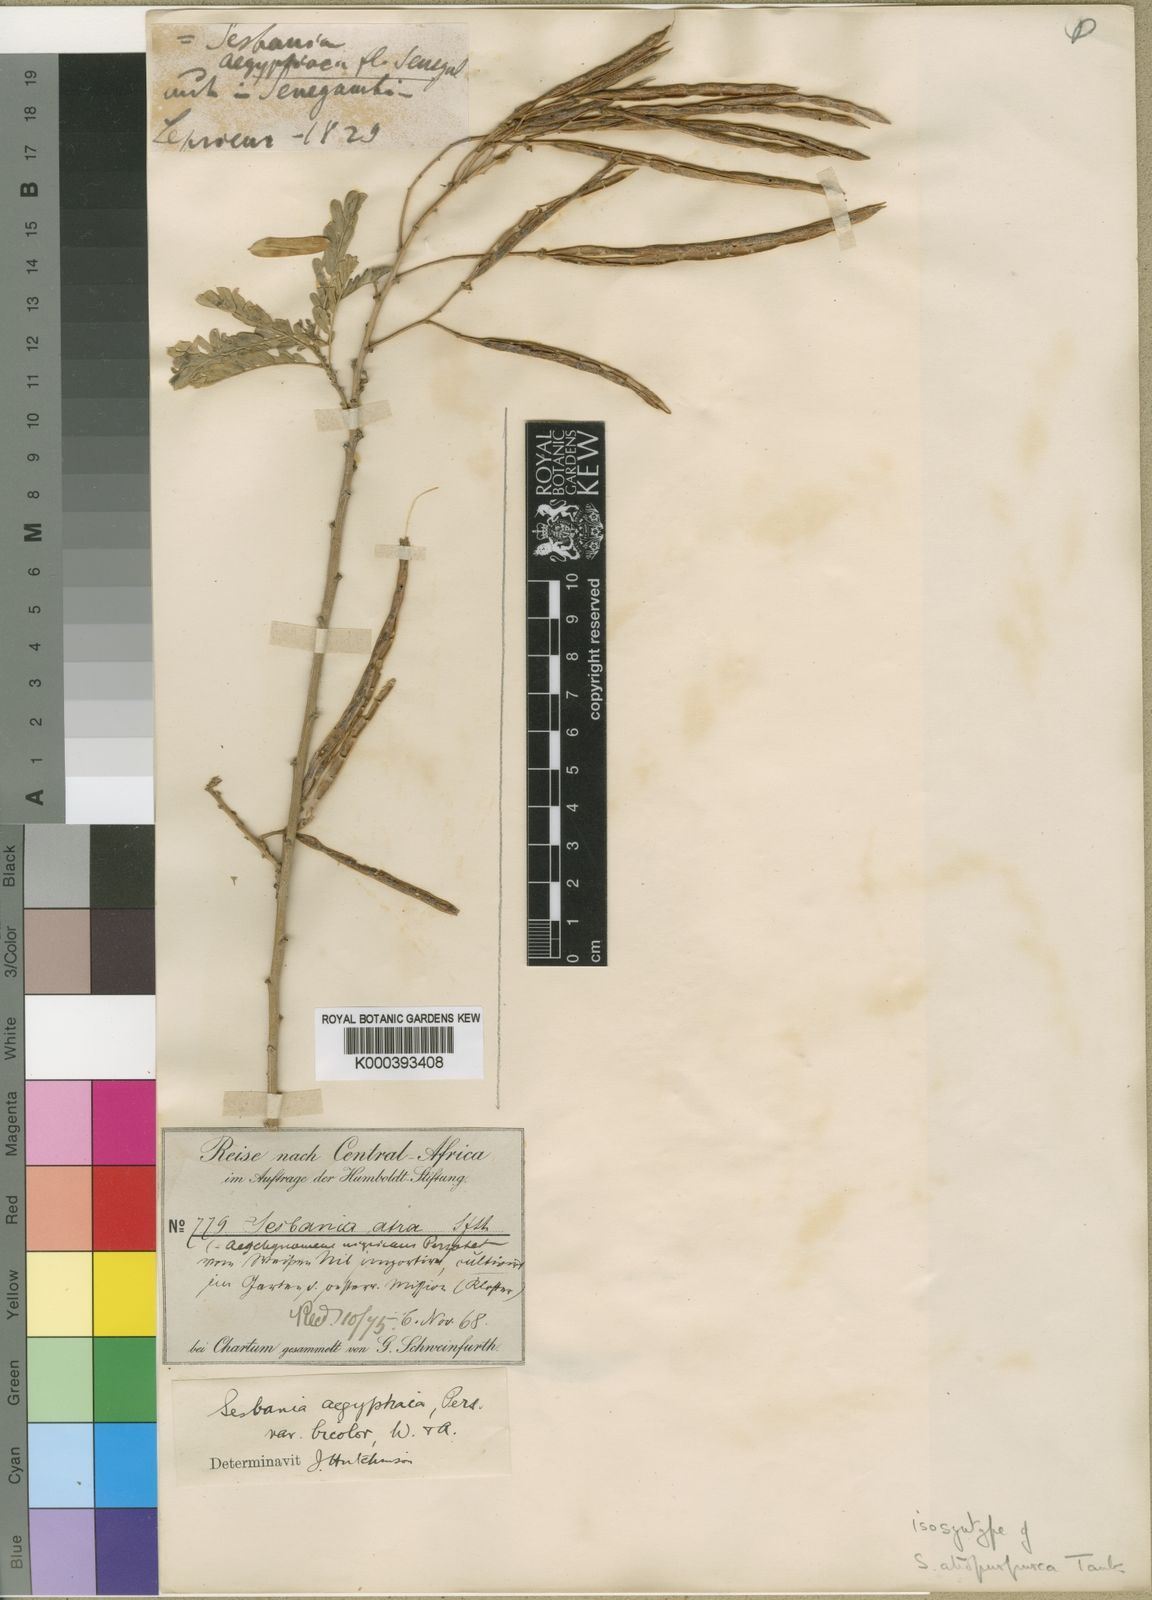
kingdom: Plantae
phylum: Tracheophyta
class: Magnoliopsida
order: Fabales
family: Fabaceae
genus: Sesbania
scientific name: Sesbania sesban
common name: Egyptian sesban
